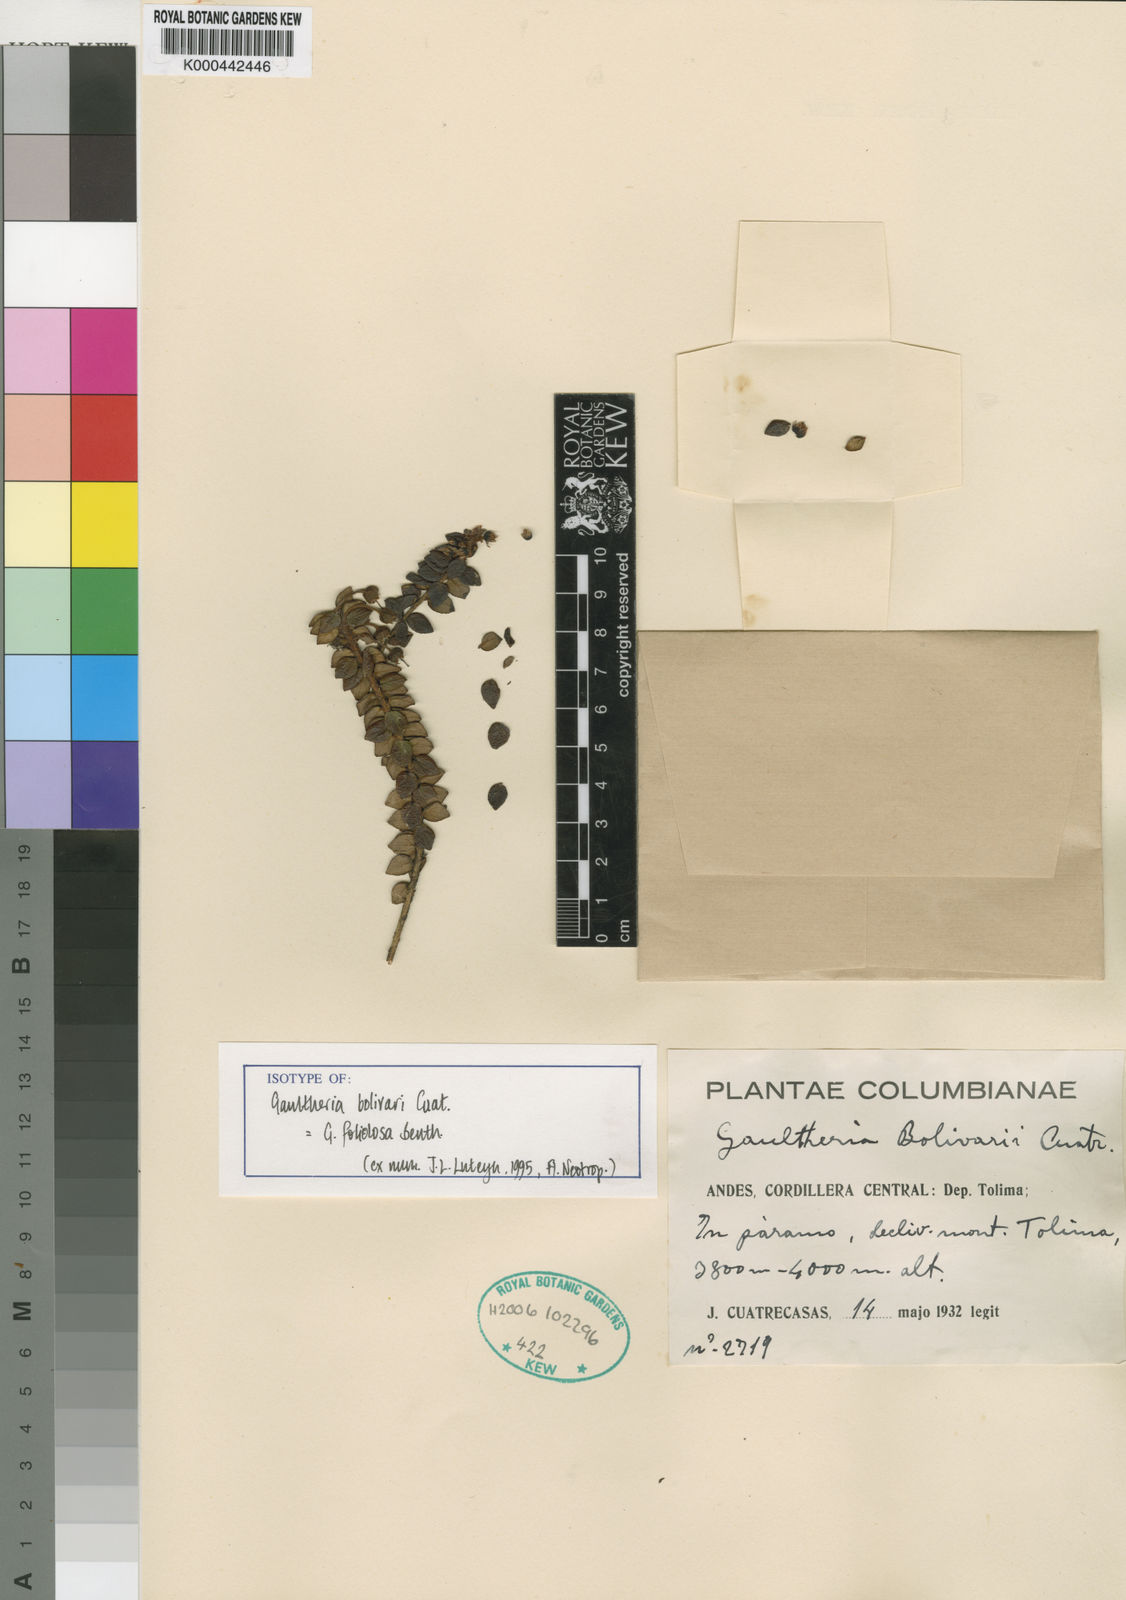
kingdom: Plantae
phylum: Tracheophyta
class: Magnoliopsida
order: Ericales
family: Ericaceae
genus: Gaultheria
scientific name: Gaultheria foliolosa
